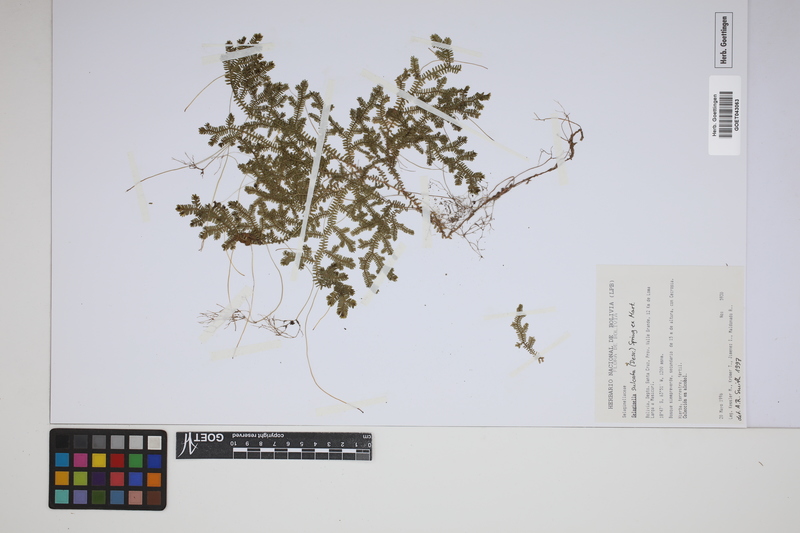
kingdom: Plantae
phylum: Tracheophyta
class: Lycopodiopsida
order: Selaginellales
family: Selaginellaceae
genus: Selaginella
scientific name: Selaginella sulcata
